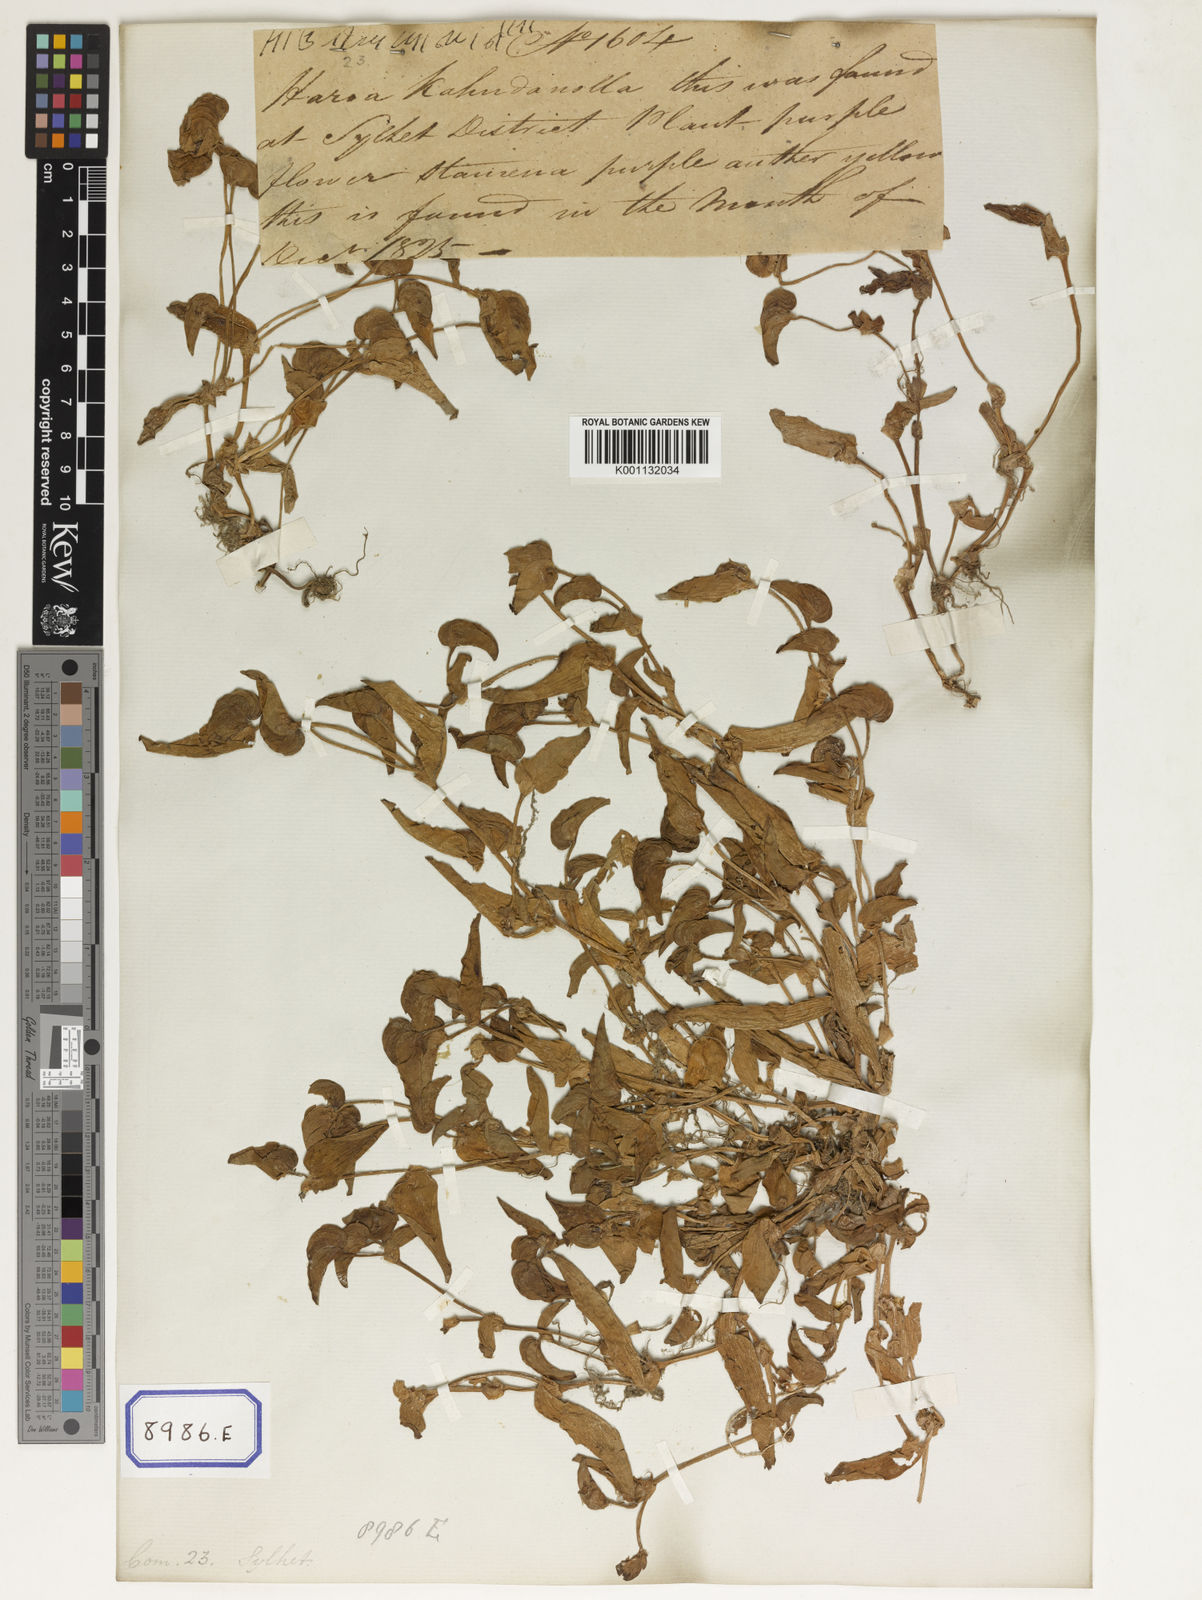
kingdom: Plantae
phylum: Tracheophyta
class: Liliopsida
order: Commelinales
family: Commelinaceae
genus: Cyanotis
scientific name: Cyanotis cristata
